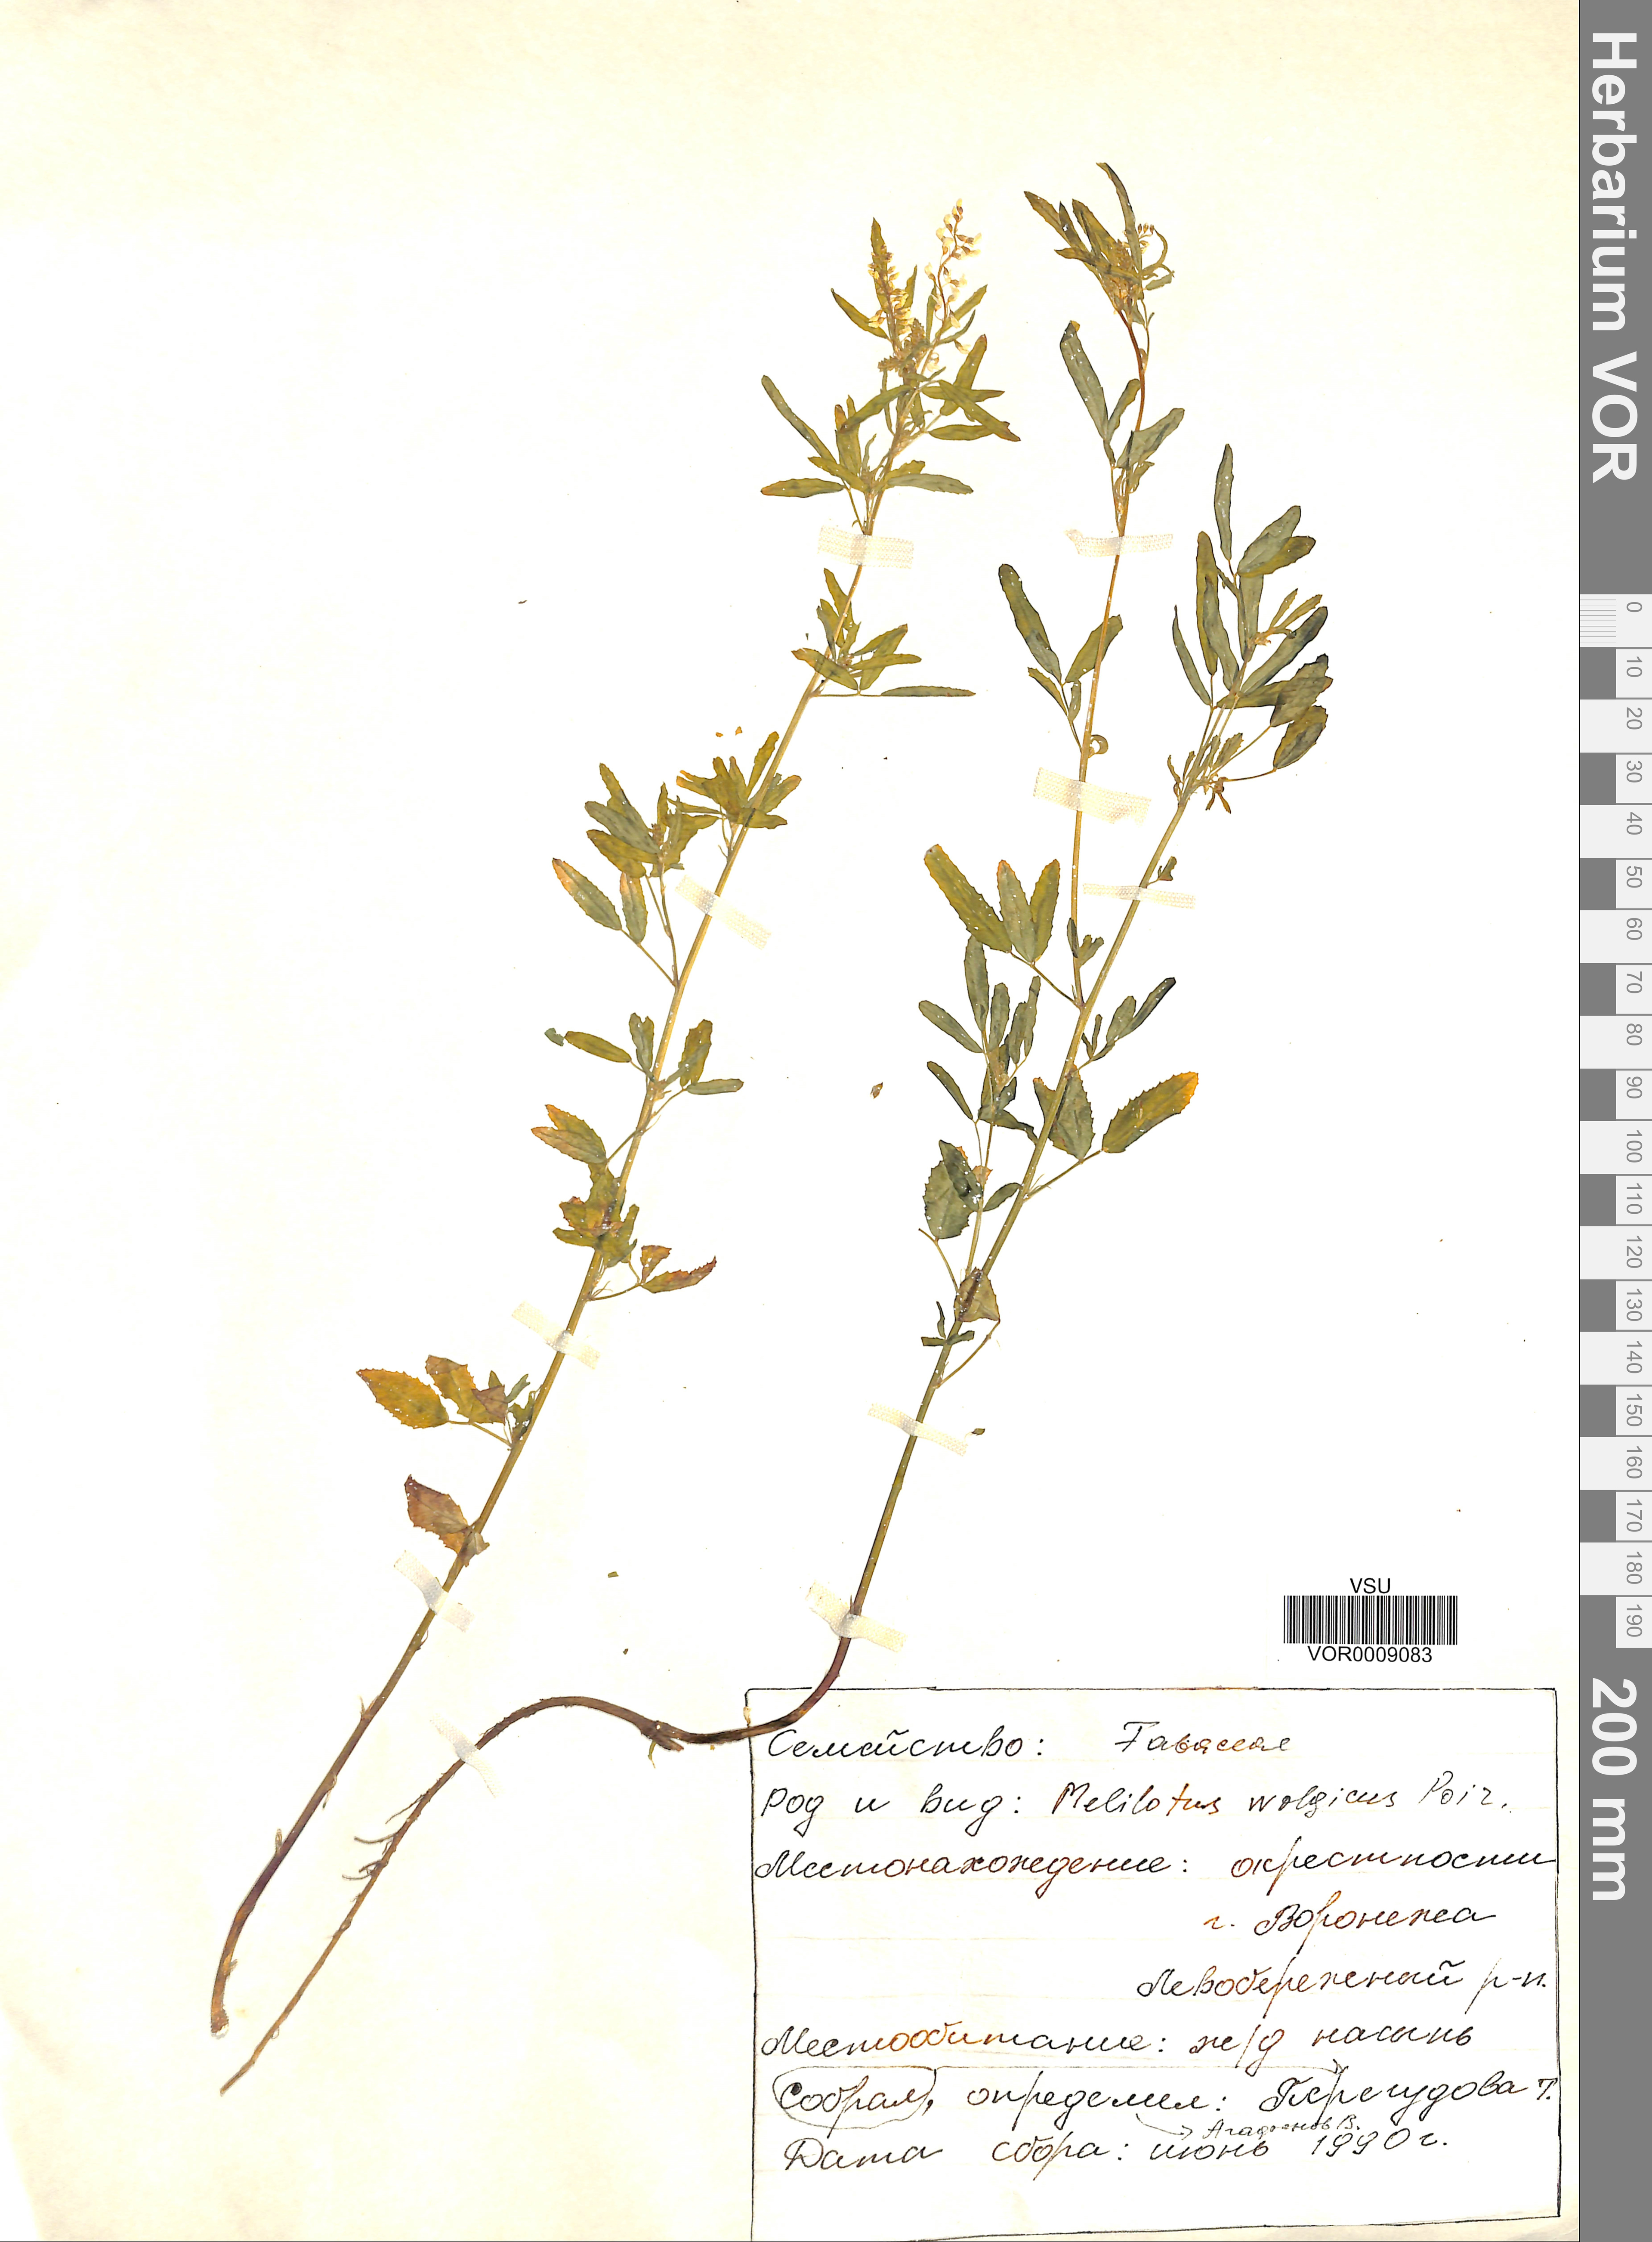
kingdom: Plantae
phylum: Tracheophyta
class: Magnoliopsida
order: Fabales
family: Fabaceae
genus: Melilotus
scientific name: Melilotus wolgicus
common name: Volga sweet-clover
